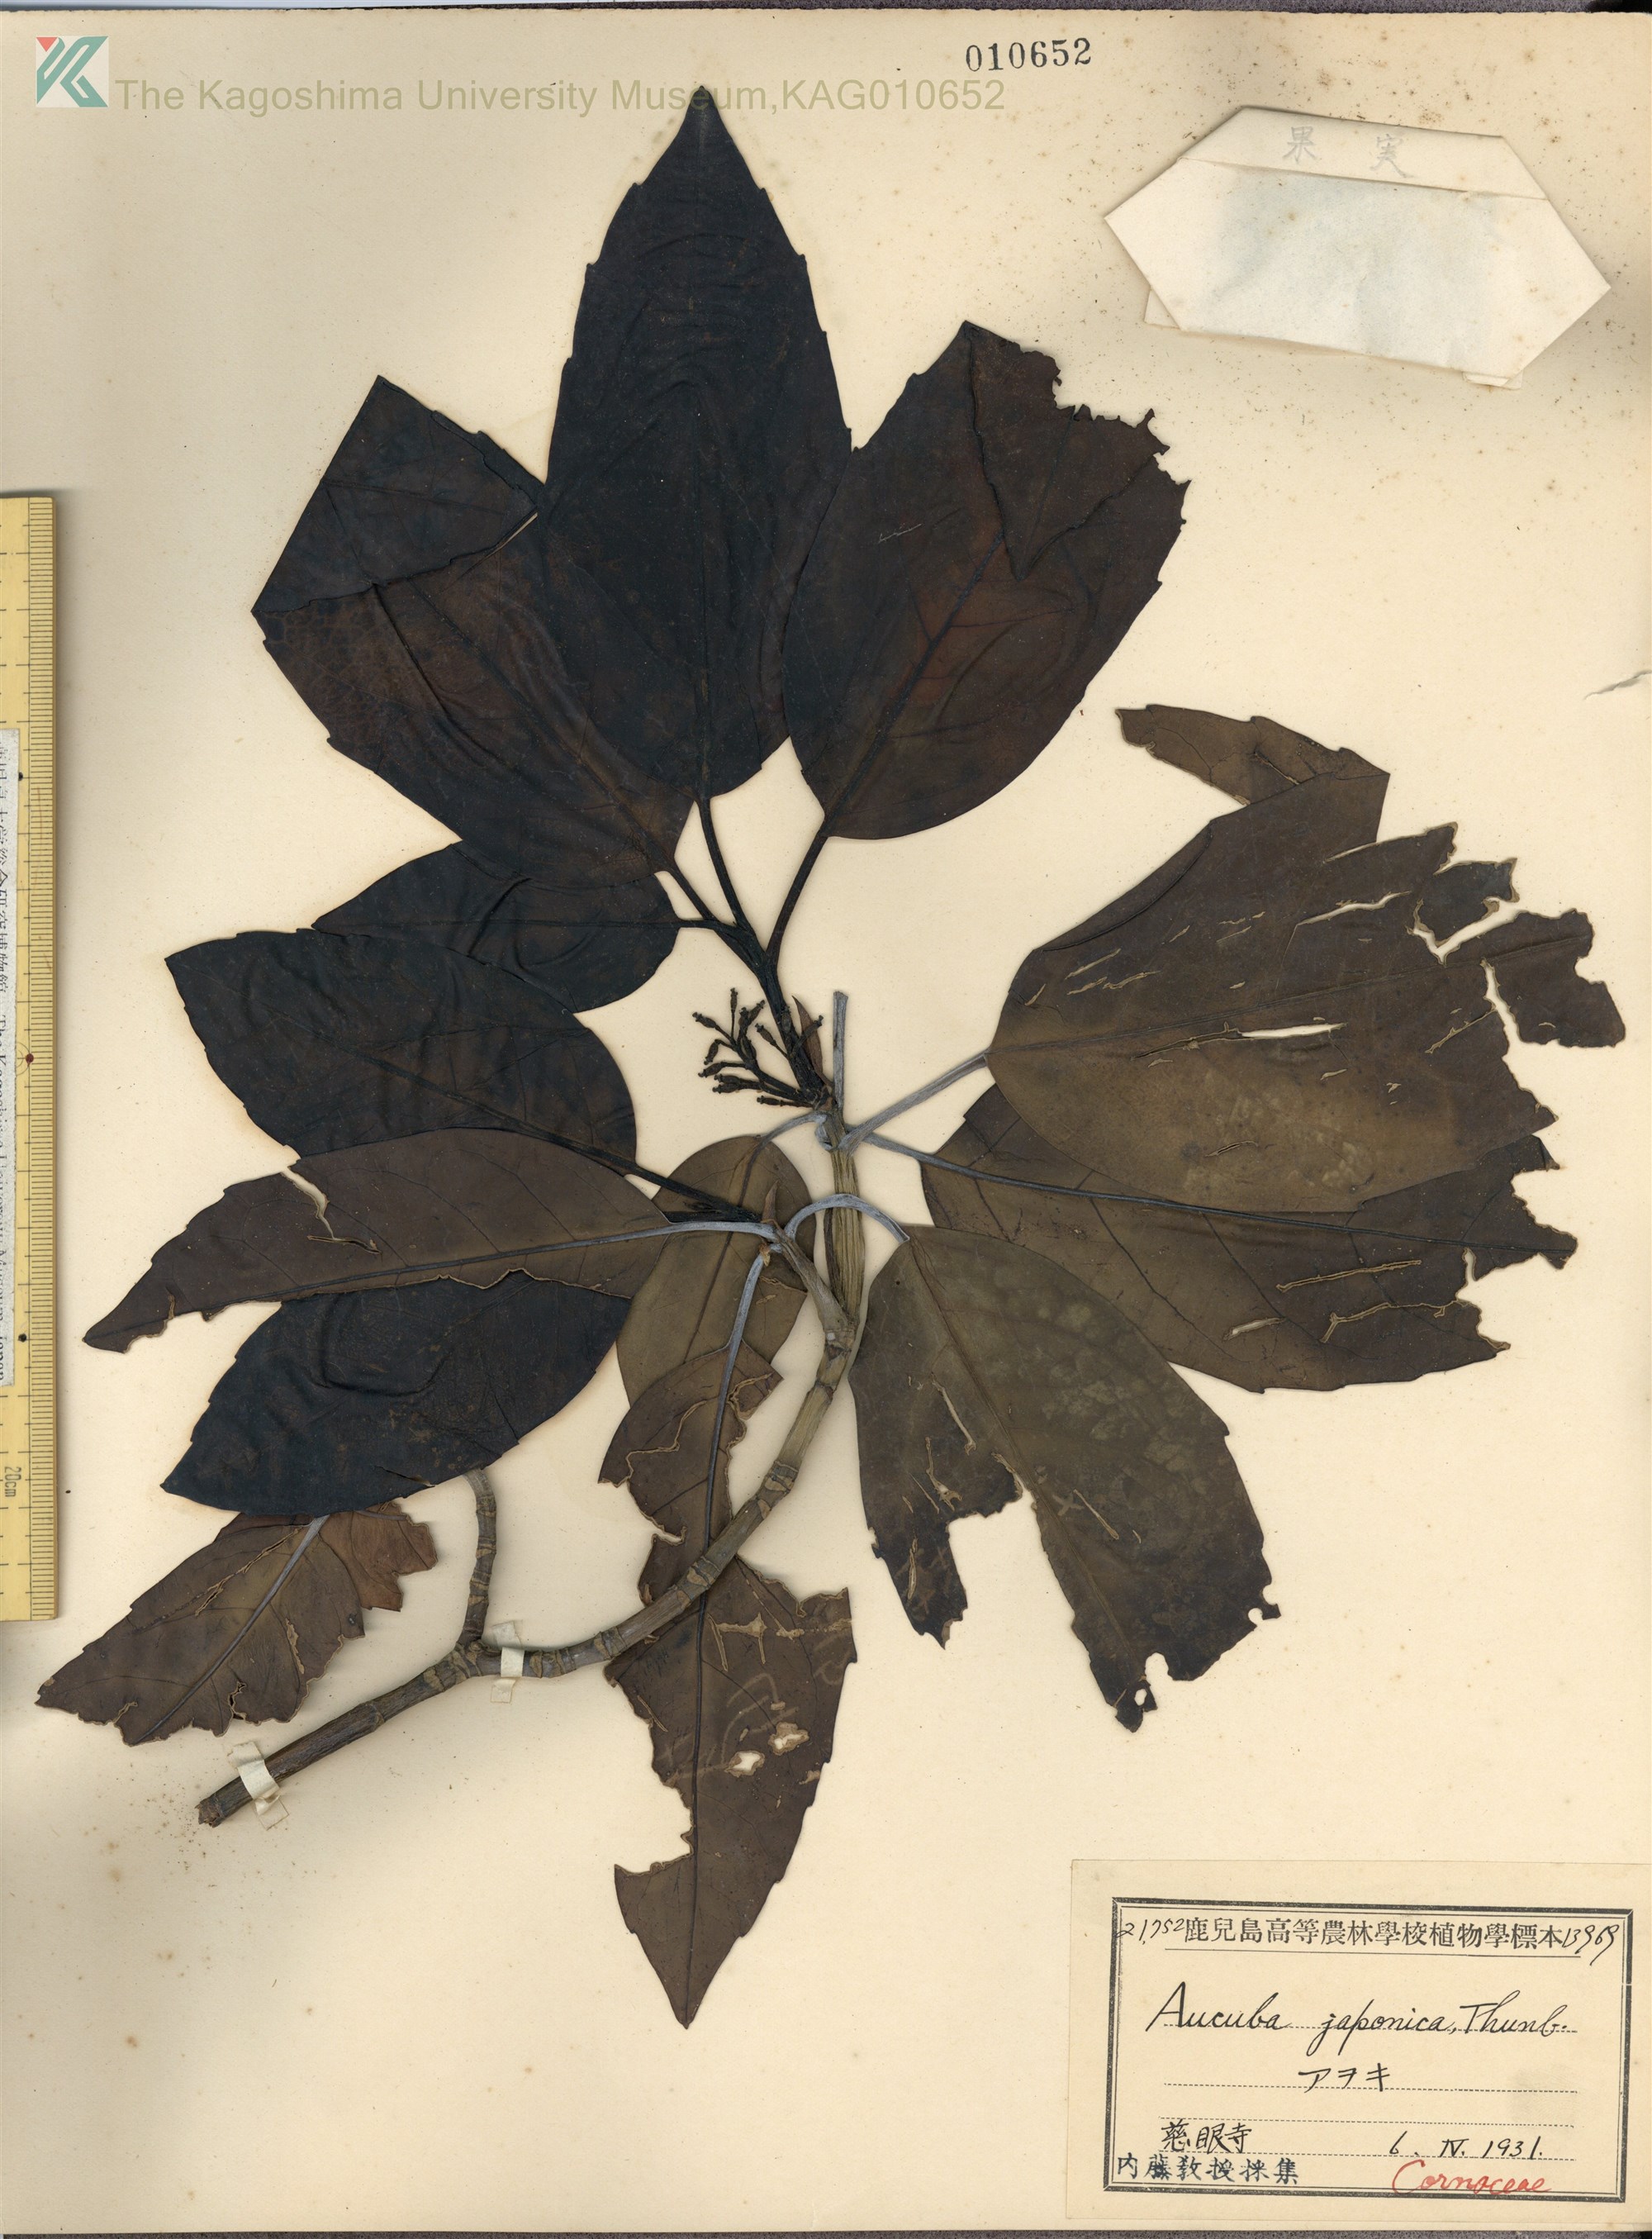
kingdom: Plantae
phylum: Tracheophyta
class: Magnoliopsida
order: Garryales
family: Garryaceae
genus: Aucuba
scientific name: Aucuba japonica
